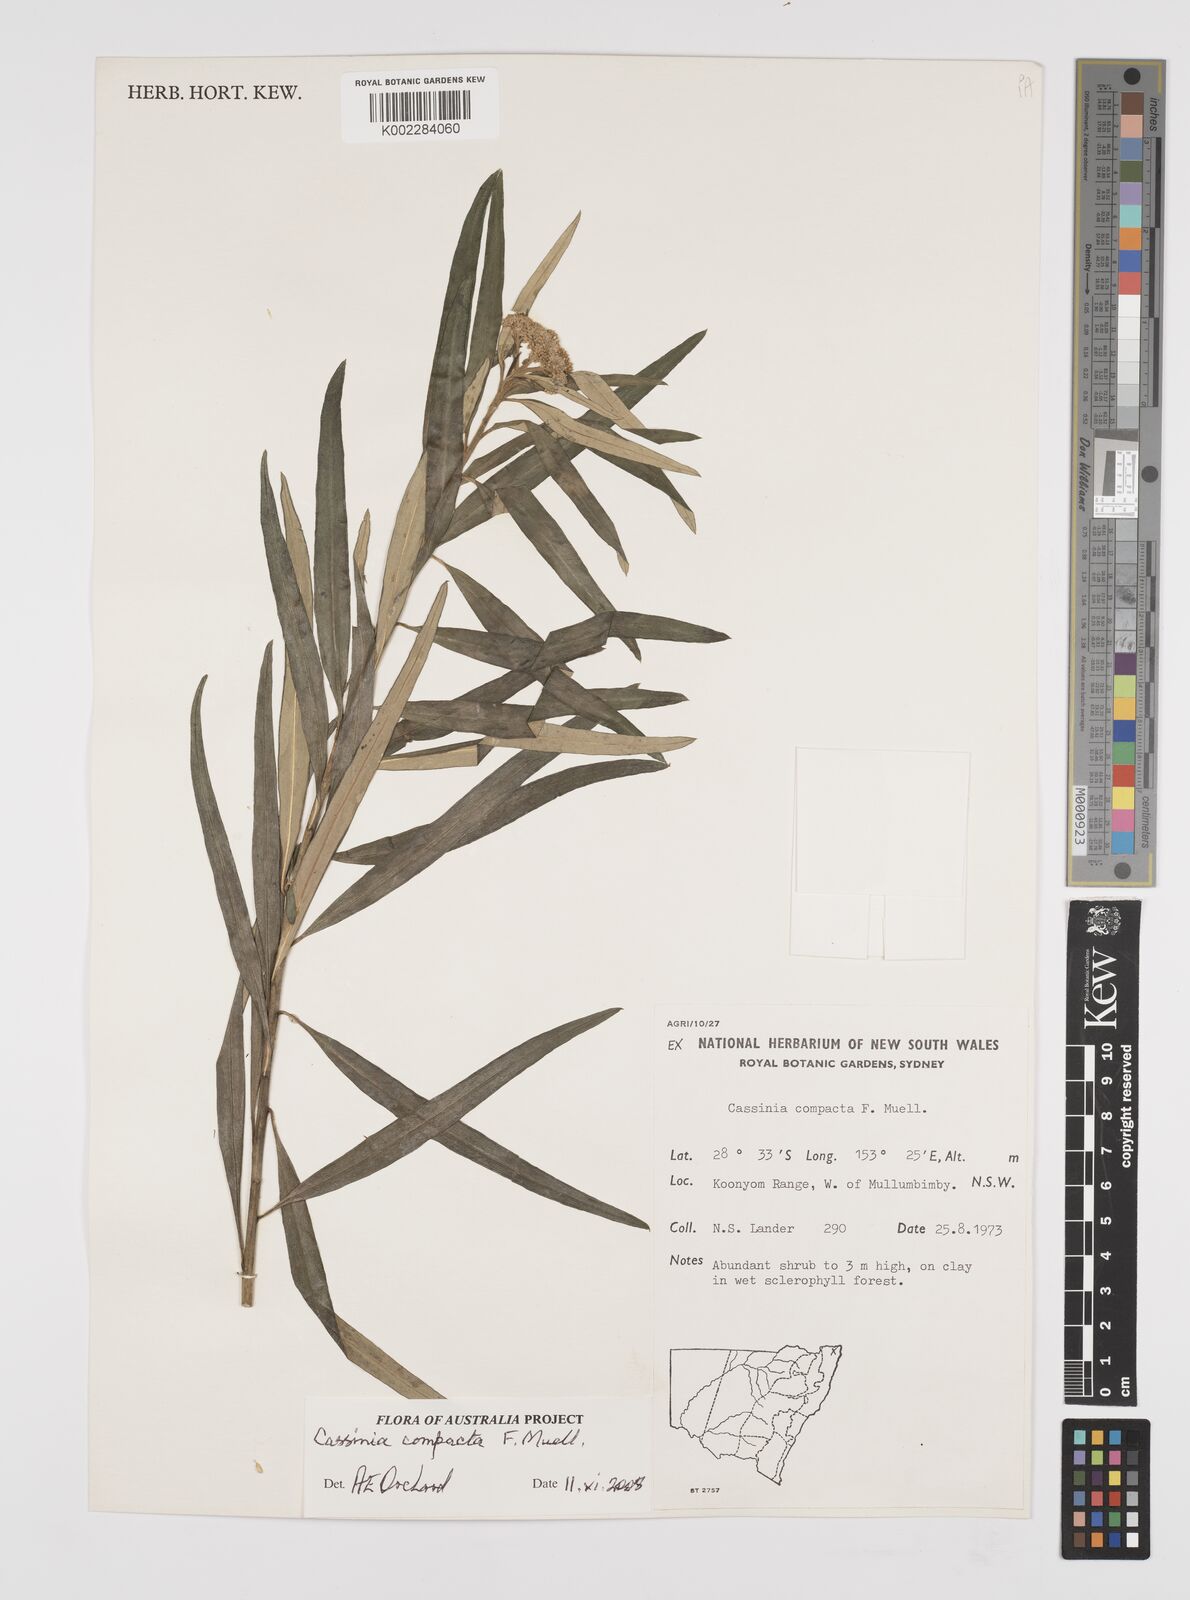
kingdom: Plantae
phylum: Tracheophyta
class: Magnoliopsida
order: Asterales
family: Asteraceae
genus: Cassinia
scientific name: Cassinia compacta
